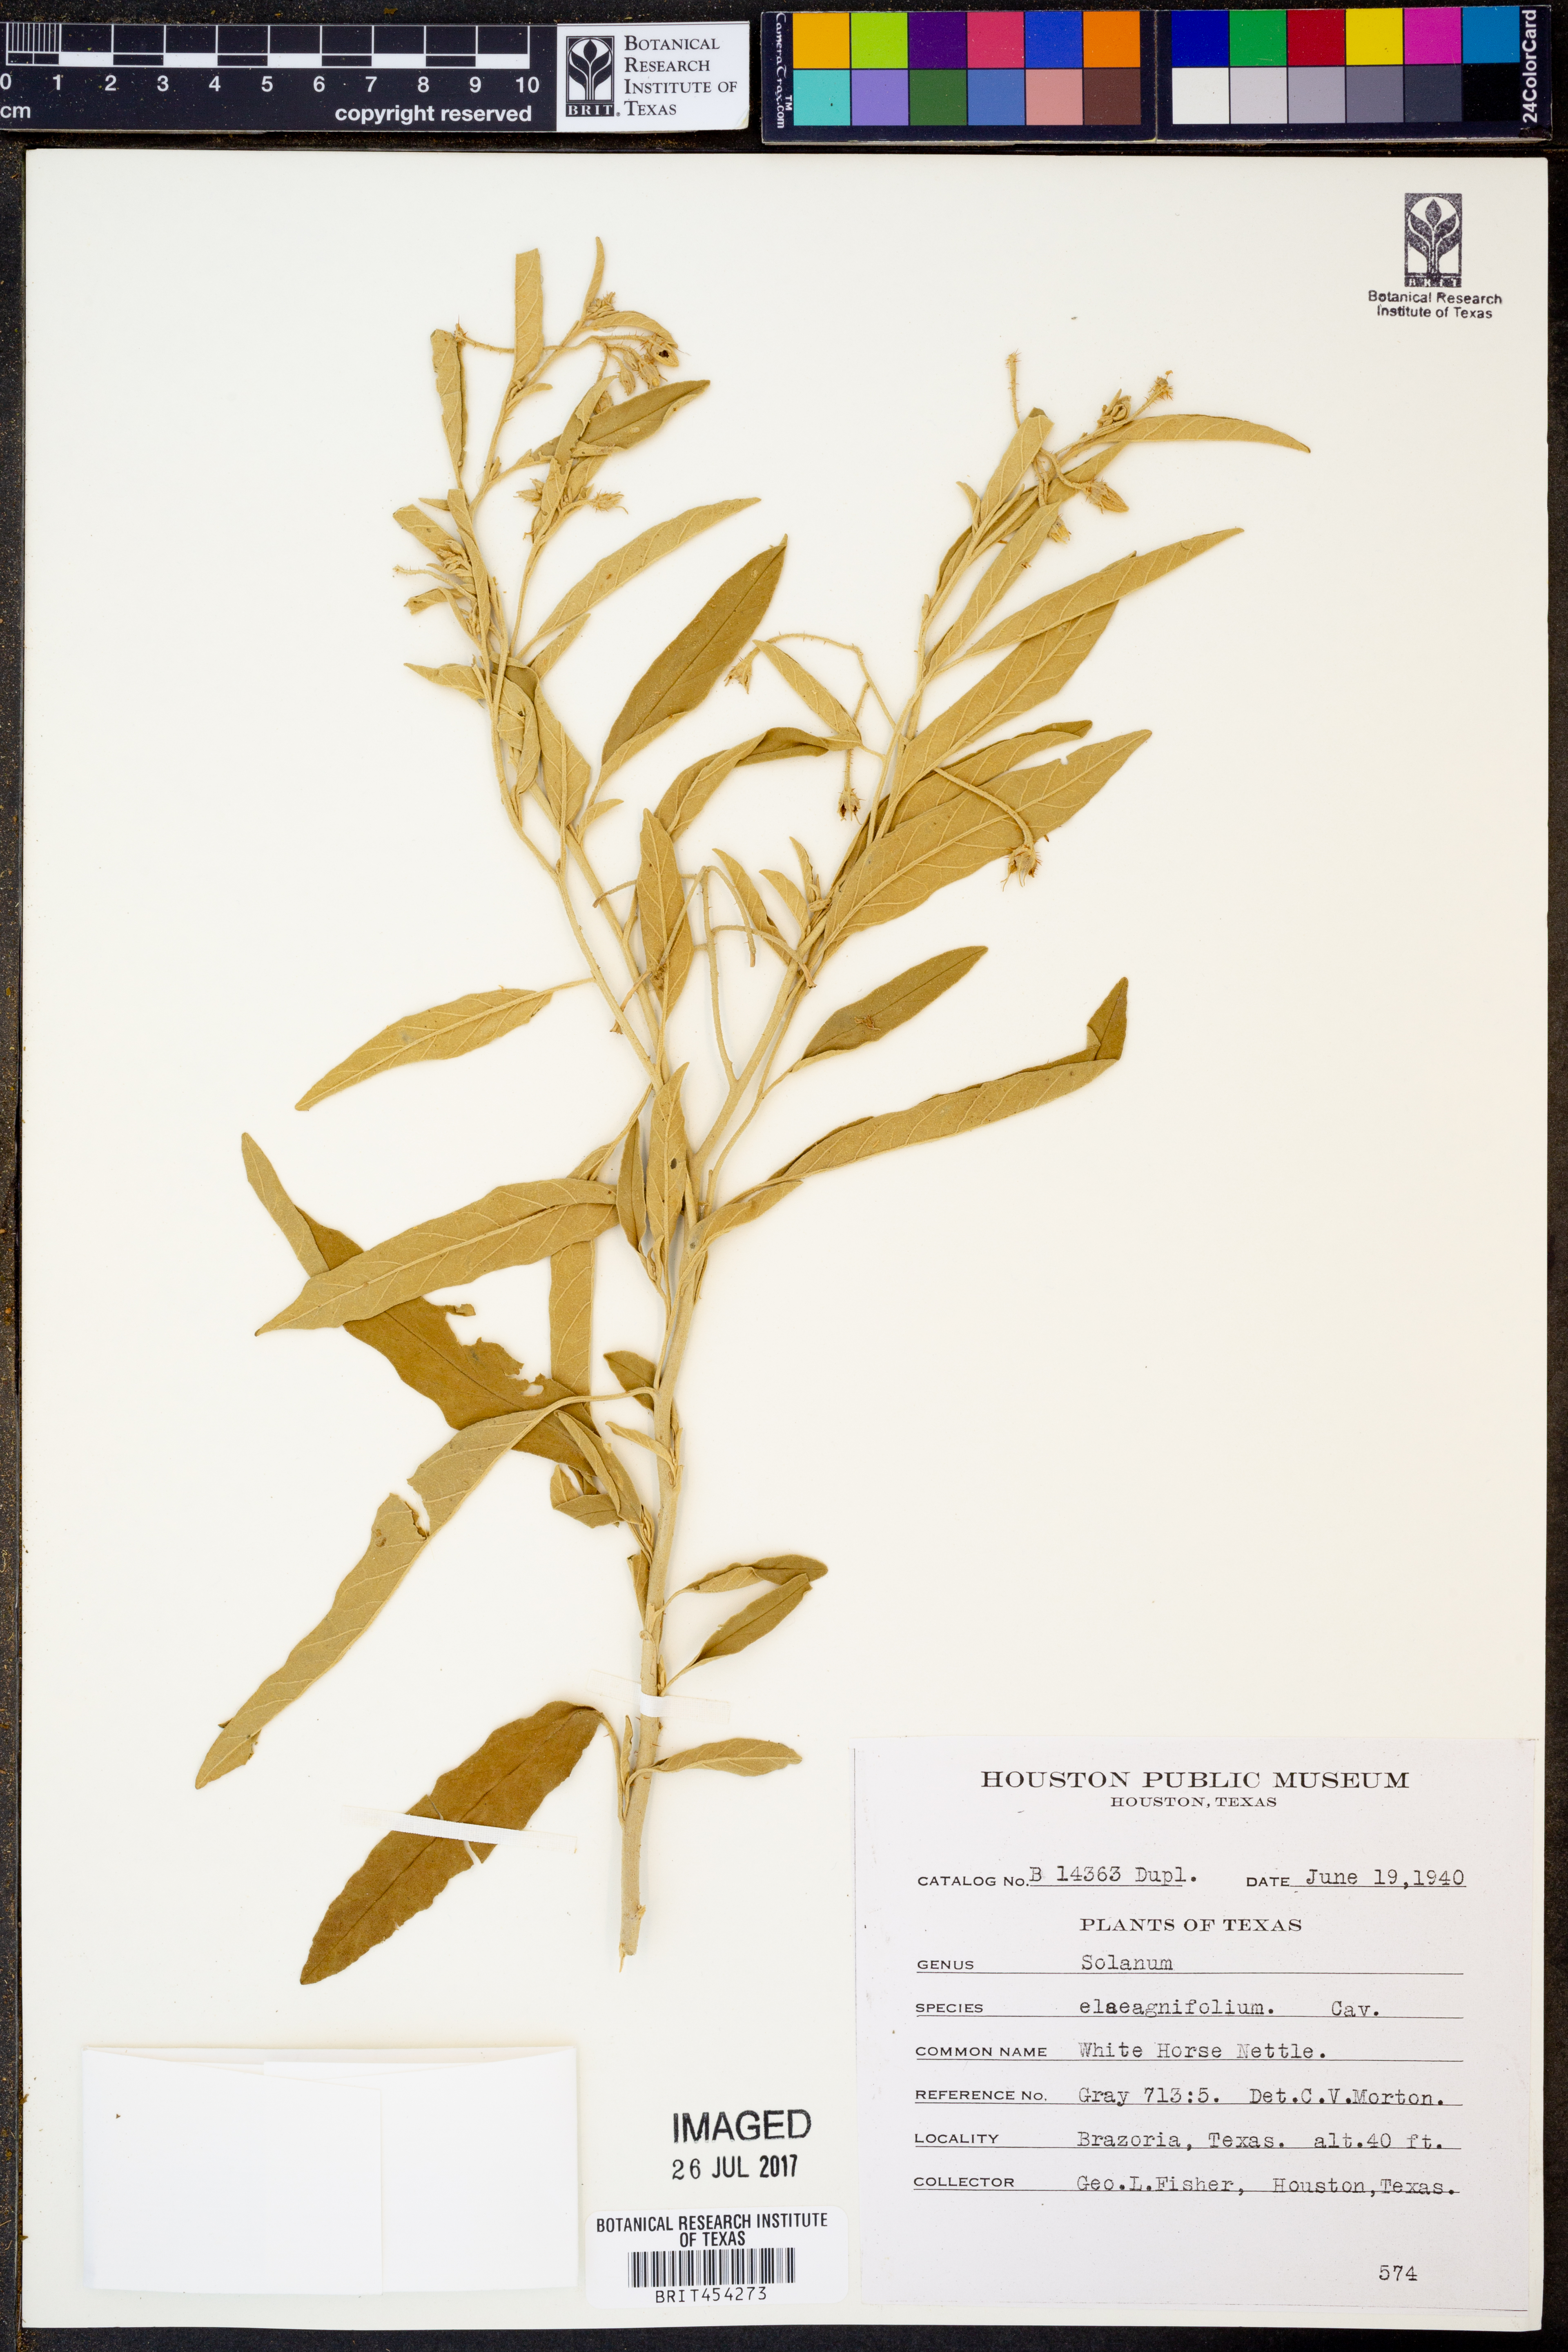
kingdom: Plantae
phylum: Tracheophyta
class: Magnoliopsida
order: Solanales
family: Solanaceae
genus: Solanum
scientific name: Solanum elaeagnifolium
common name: Silverleaf nightshade
